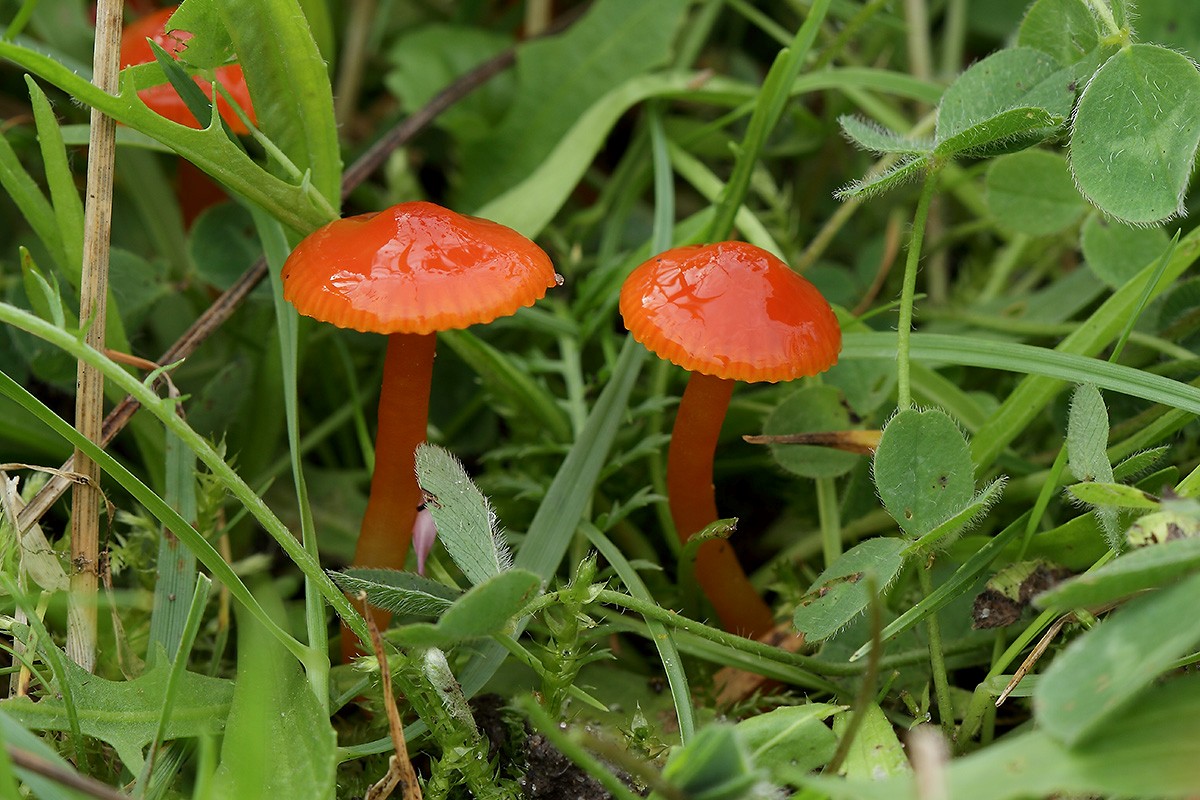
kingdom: Fungi
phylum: Basidiomycota
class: Agaricomycetes
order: Agaricales
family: Hygrophoraceae
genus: Gliophorus
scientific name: Gliophorus psittacinus
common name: Parrot wax-cap
